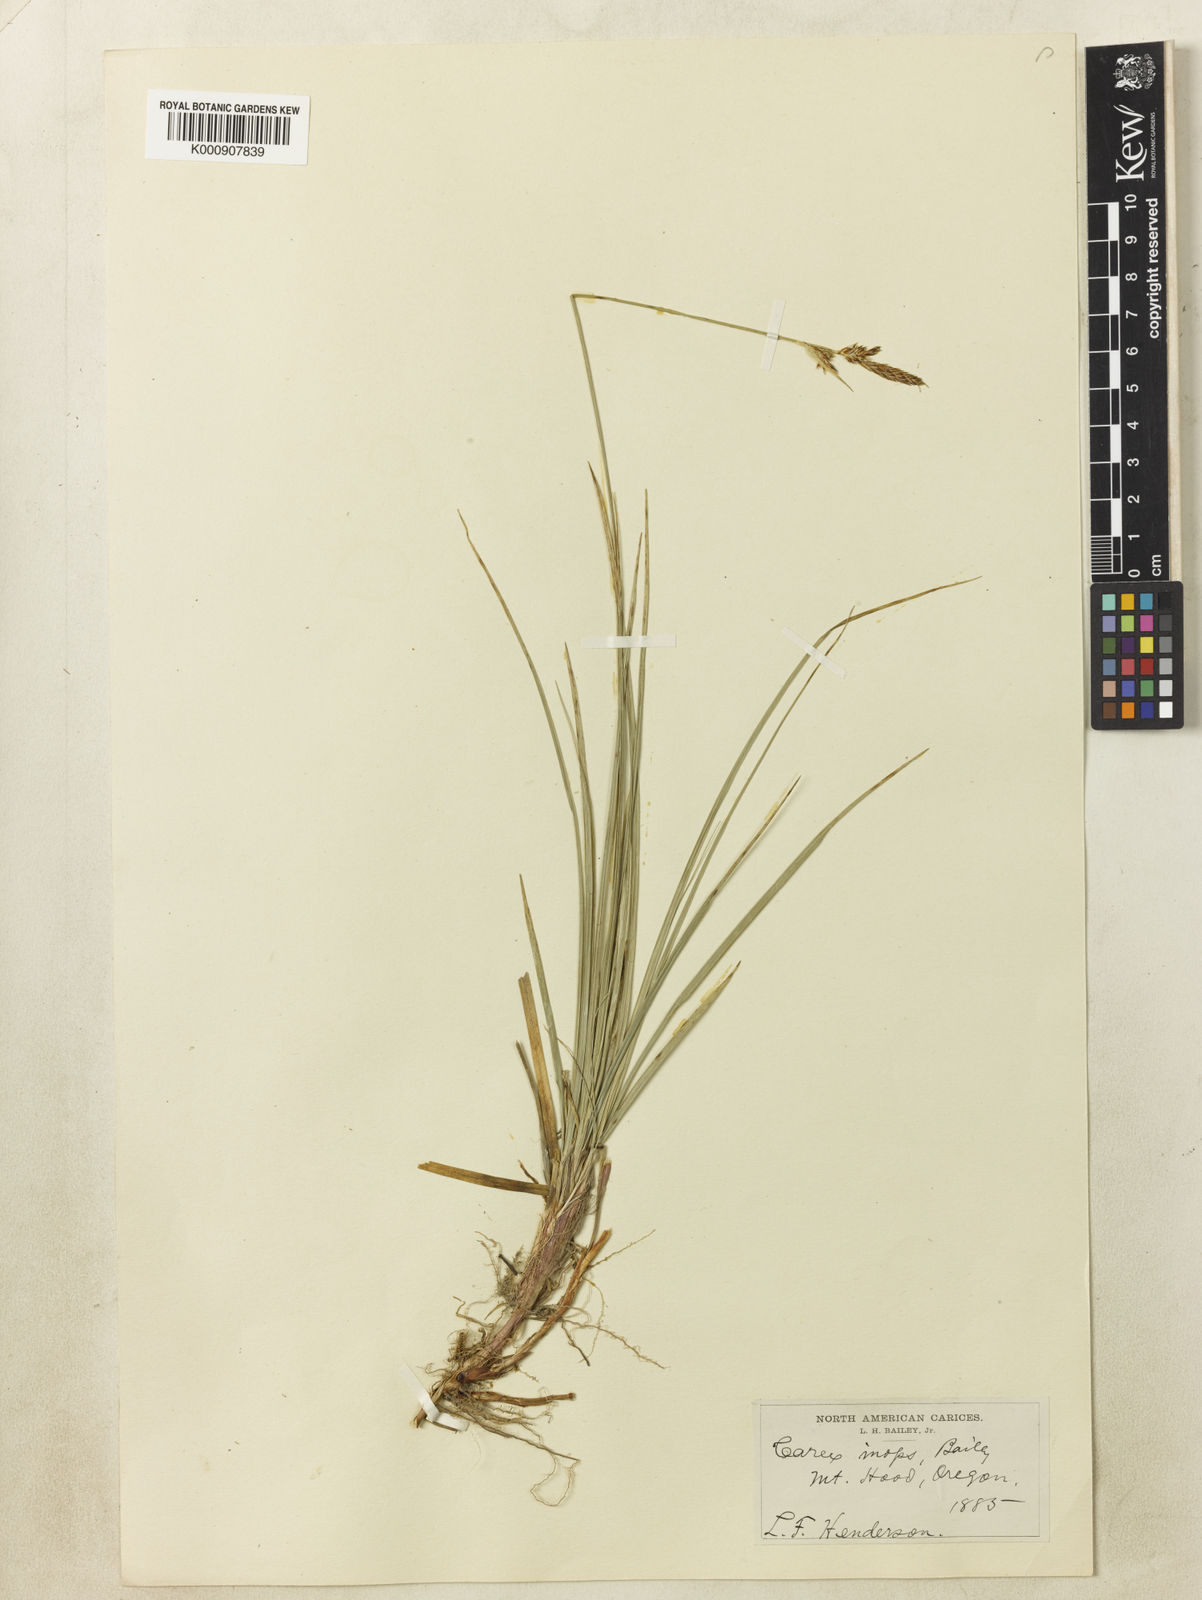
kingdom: Plantae
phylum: Tracheophyta
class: Liliopsida
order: Poales
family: Cyperaceae
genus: Carex
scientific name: Carex inops
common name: Long-stolon sedge
